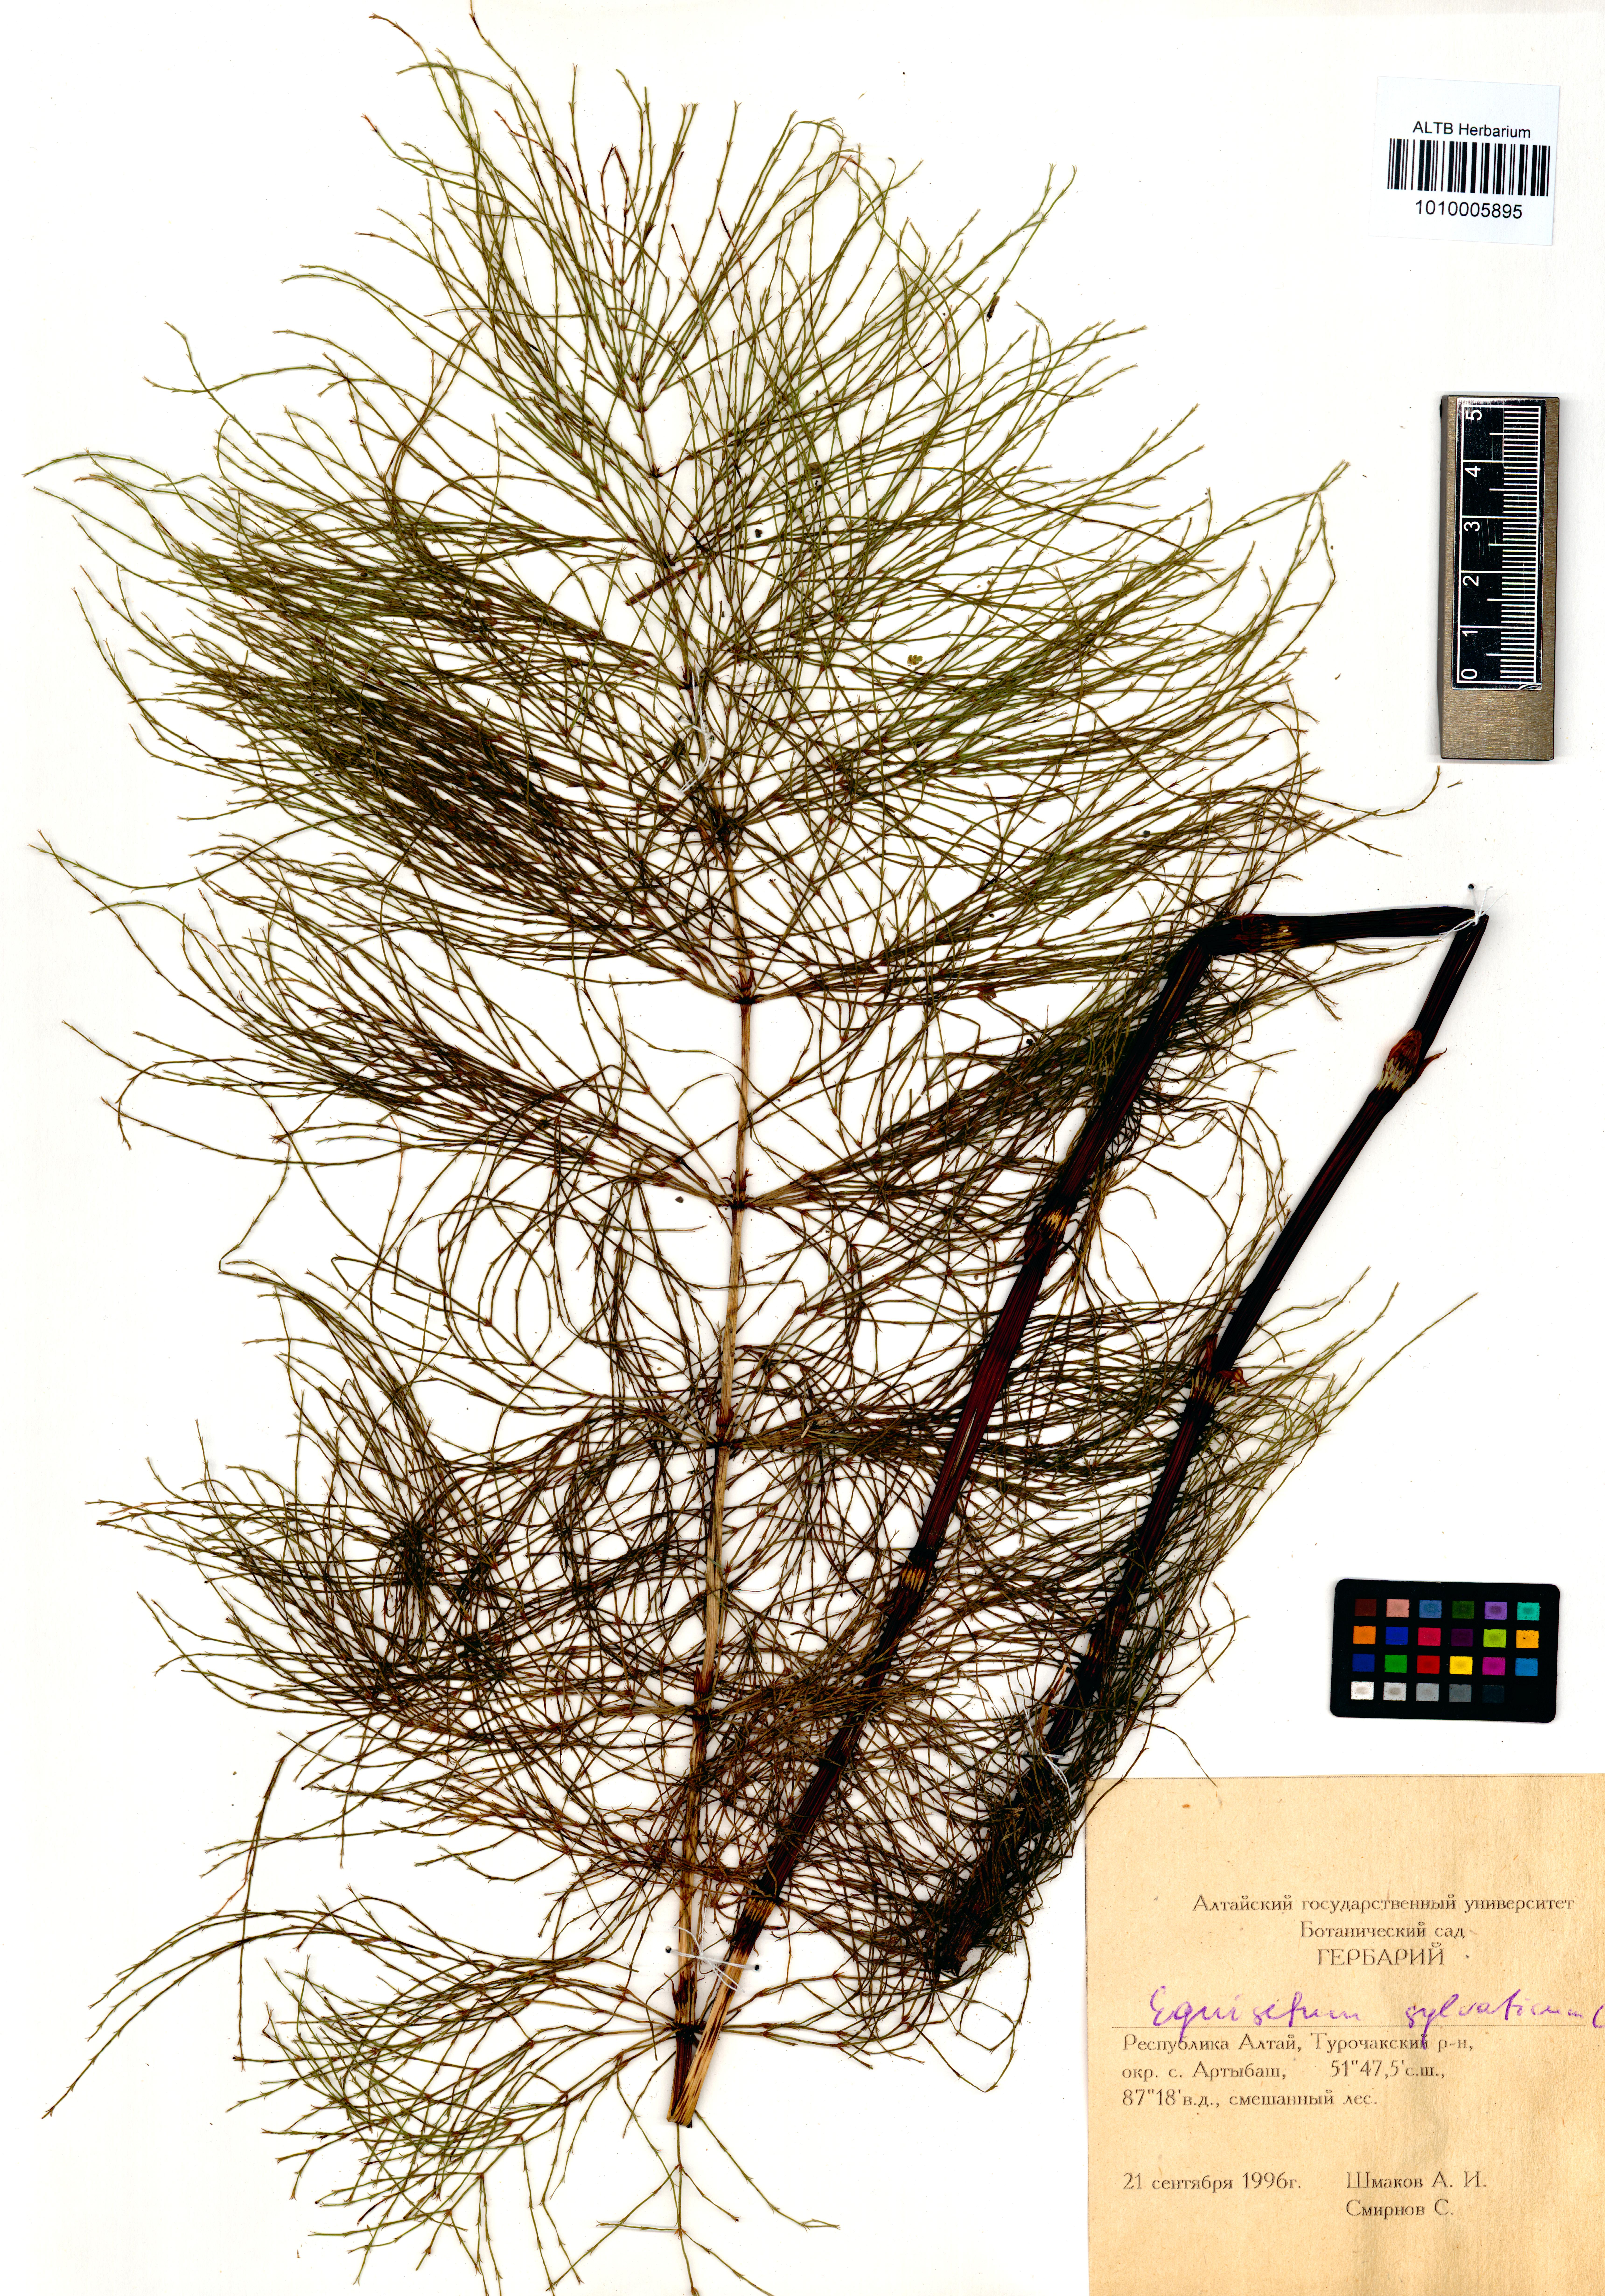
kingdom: Plantae
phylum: Tracheophyta
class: Polypodiopsida
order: Equisetales
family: Equisetaceae
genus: Equisetum
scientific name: Equisetum sylvaticum
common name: Wood horsetail
